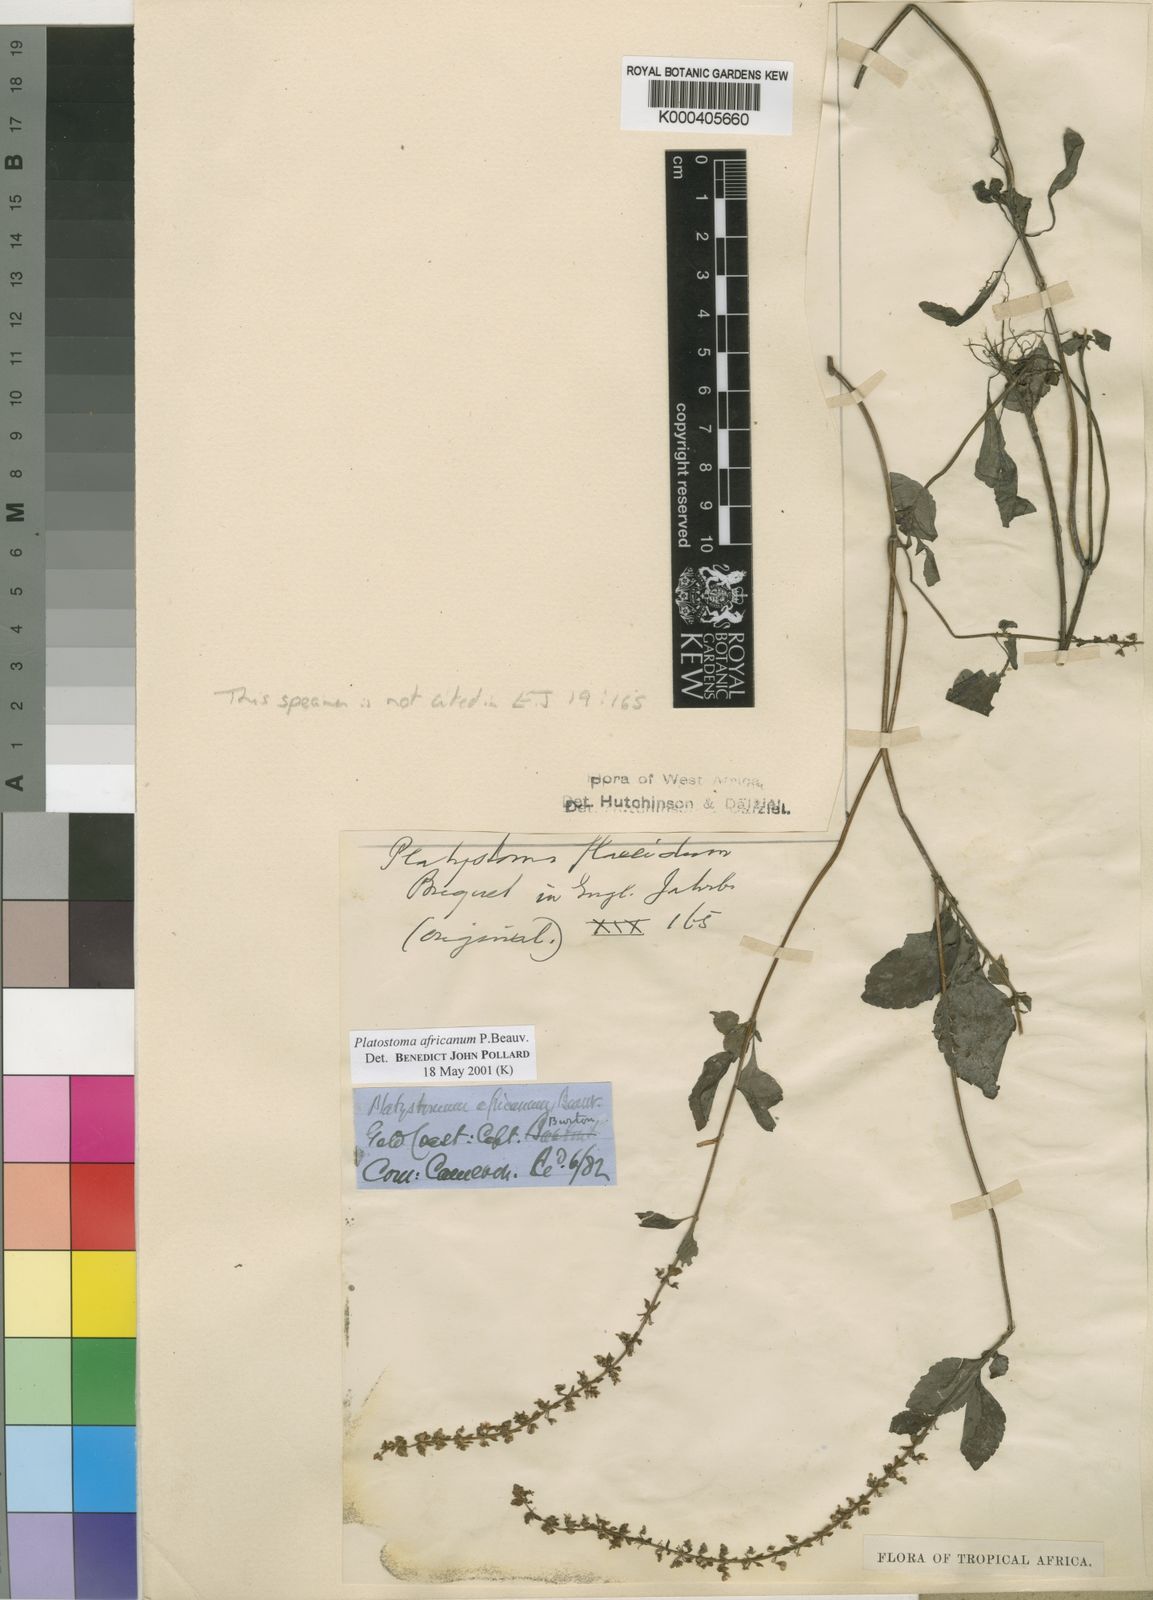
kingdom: Plantae
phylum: Tracheophyta
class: Magnoliopsida
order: Lamiales
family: Lamiaceae
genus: Platostoma
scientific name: Platostoma africanum
